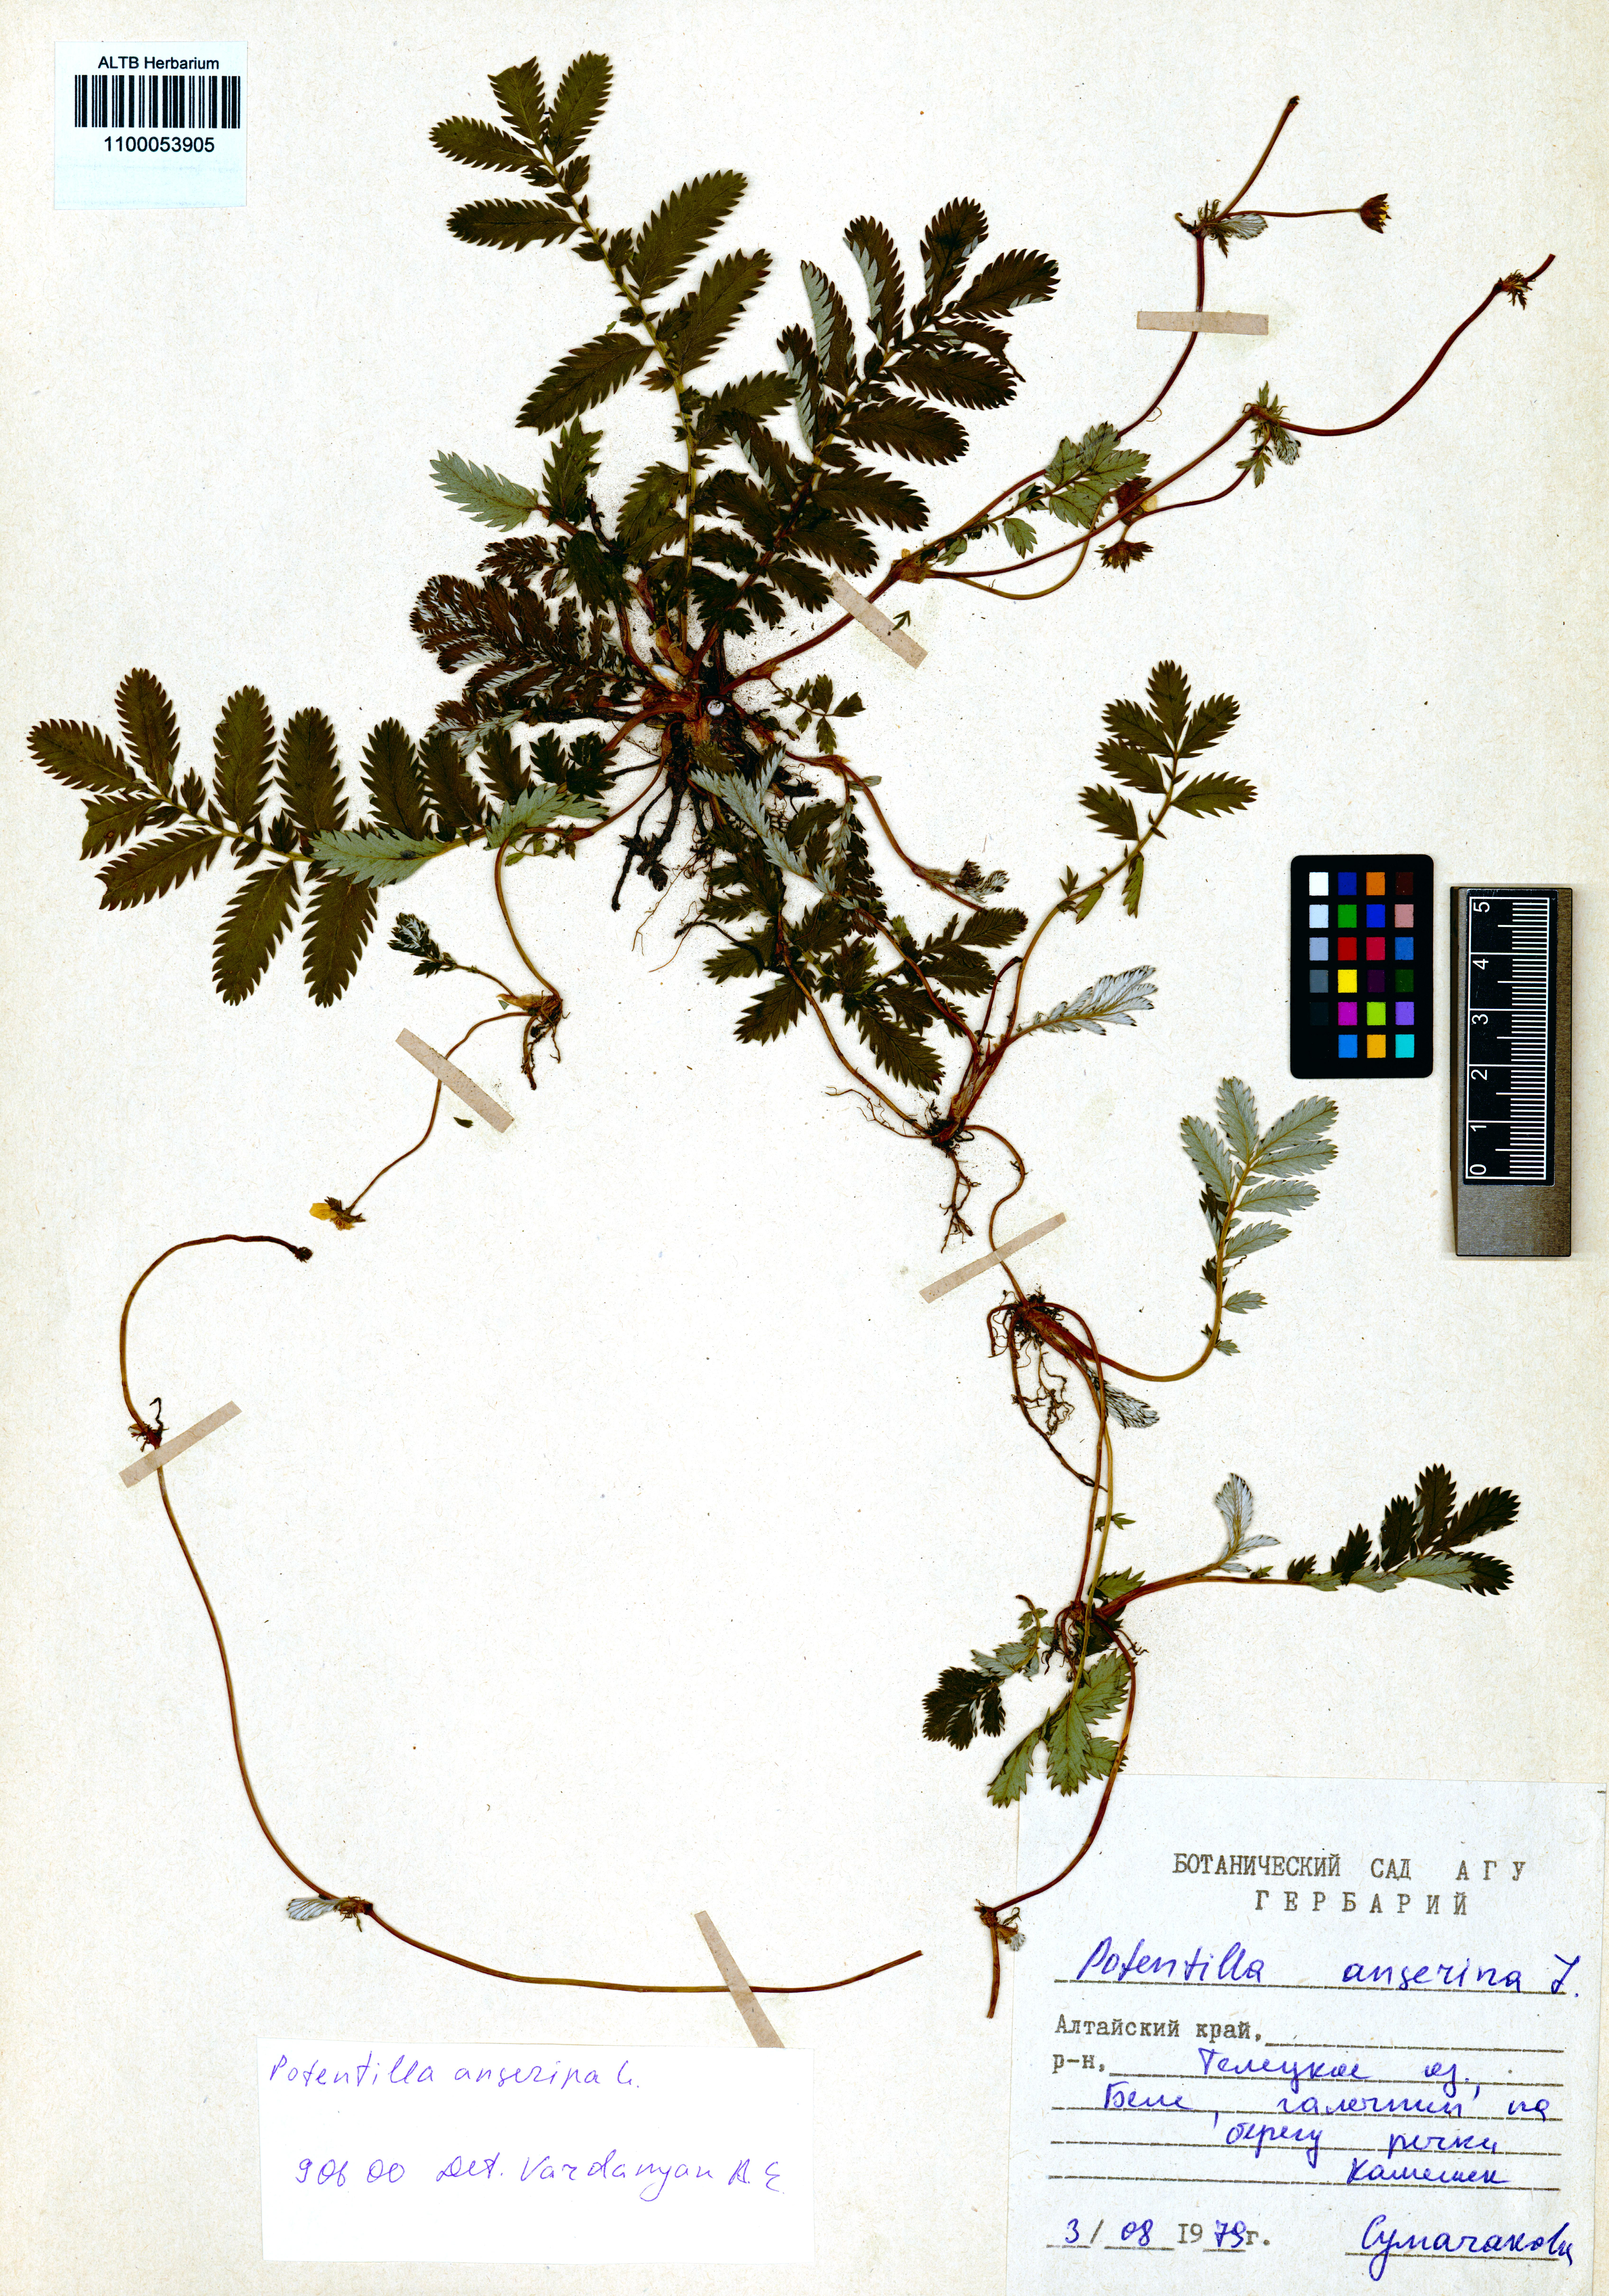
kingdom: Plantae
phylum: Tracheophyta
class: Magnoliopsida
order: Rosales
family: Rosaceae
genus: Argentina
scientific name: Argentina anserina
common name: Common silverweed
